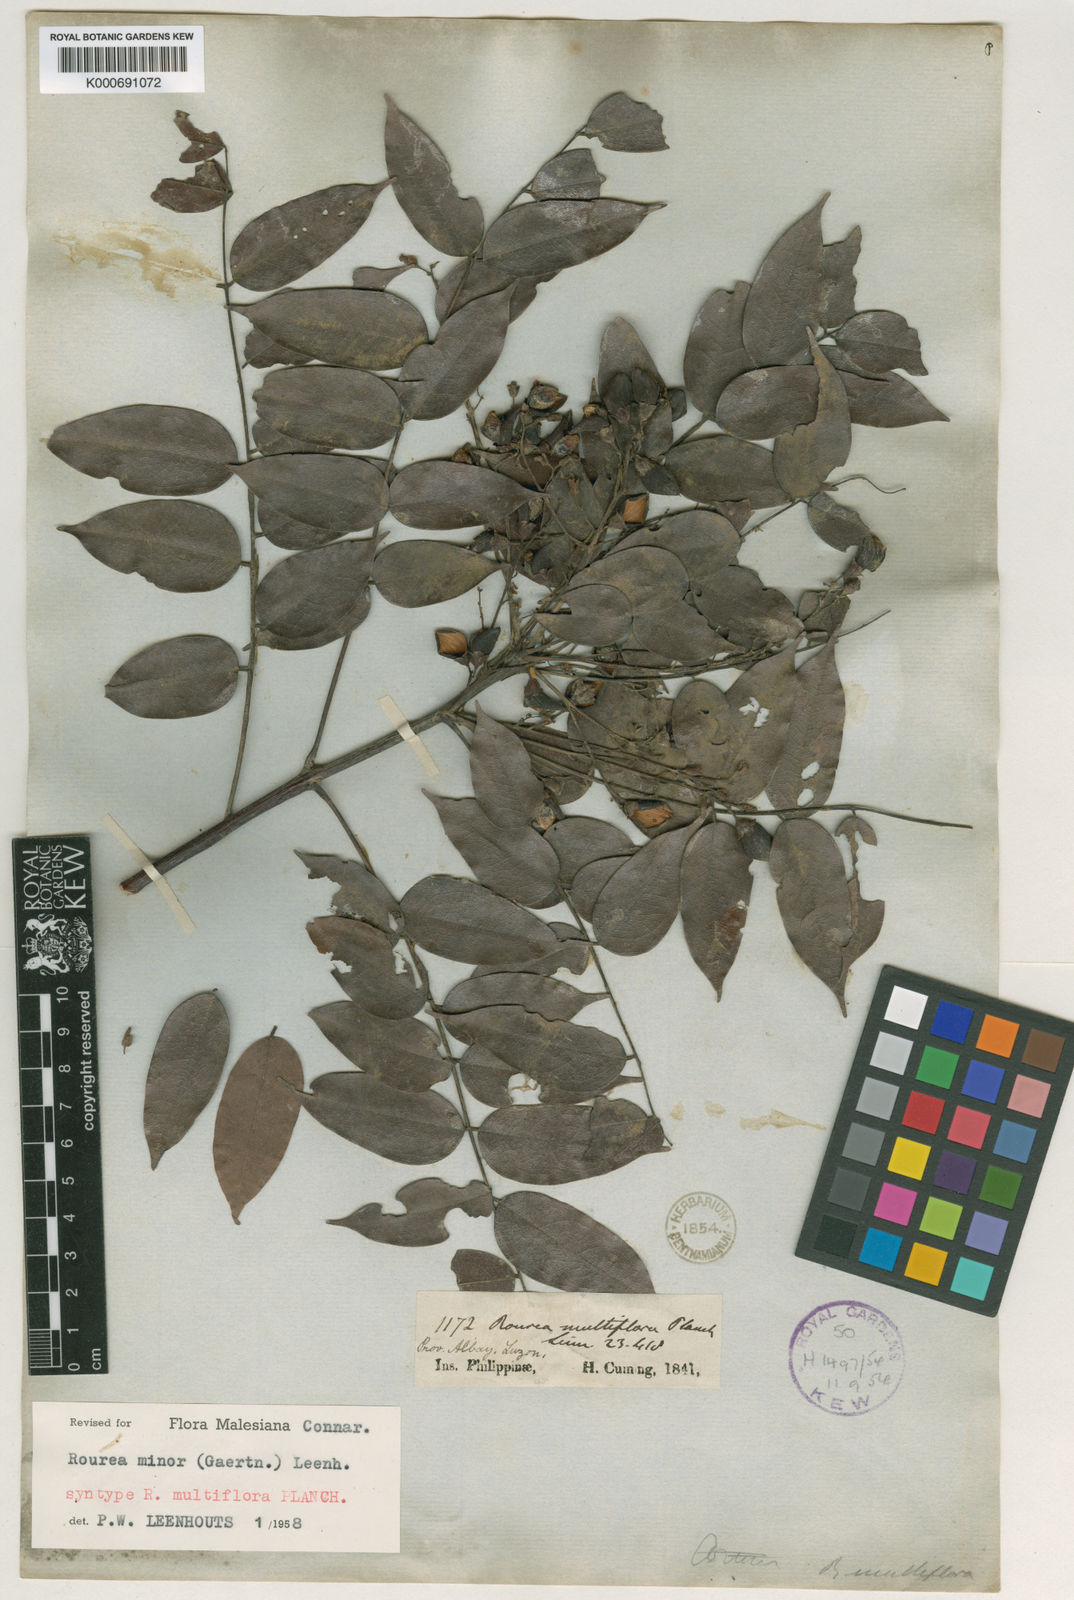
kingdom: Plantae
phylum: Tracheophyta
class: Magnoliopsida
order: Oxalidales
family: Connaraceae
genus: Rourea
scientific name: Rourea
